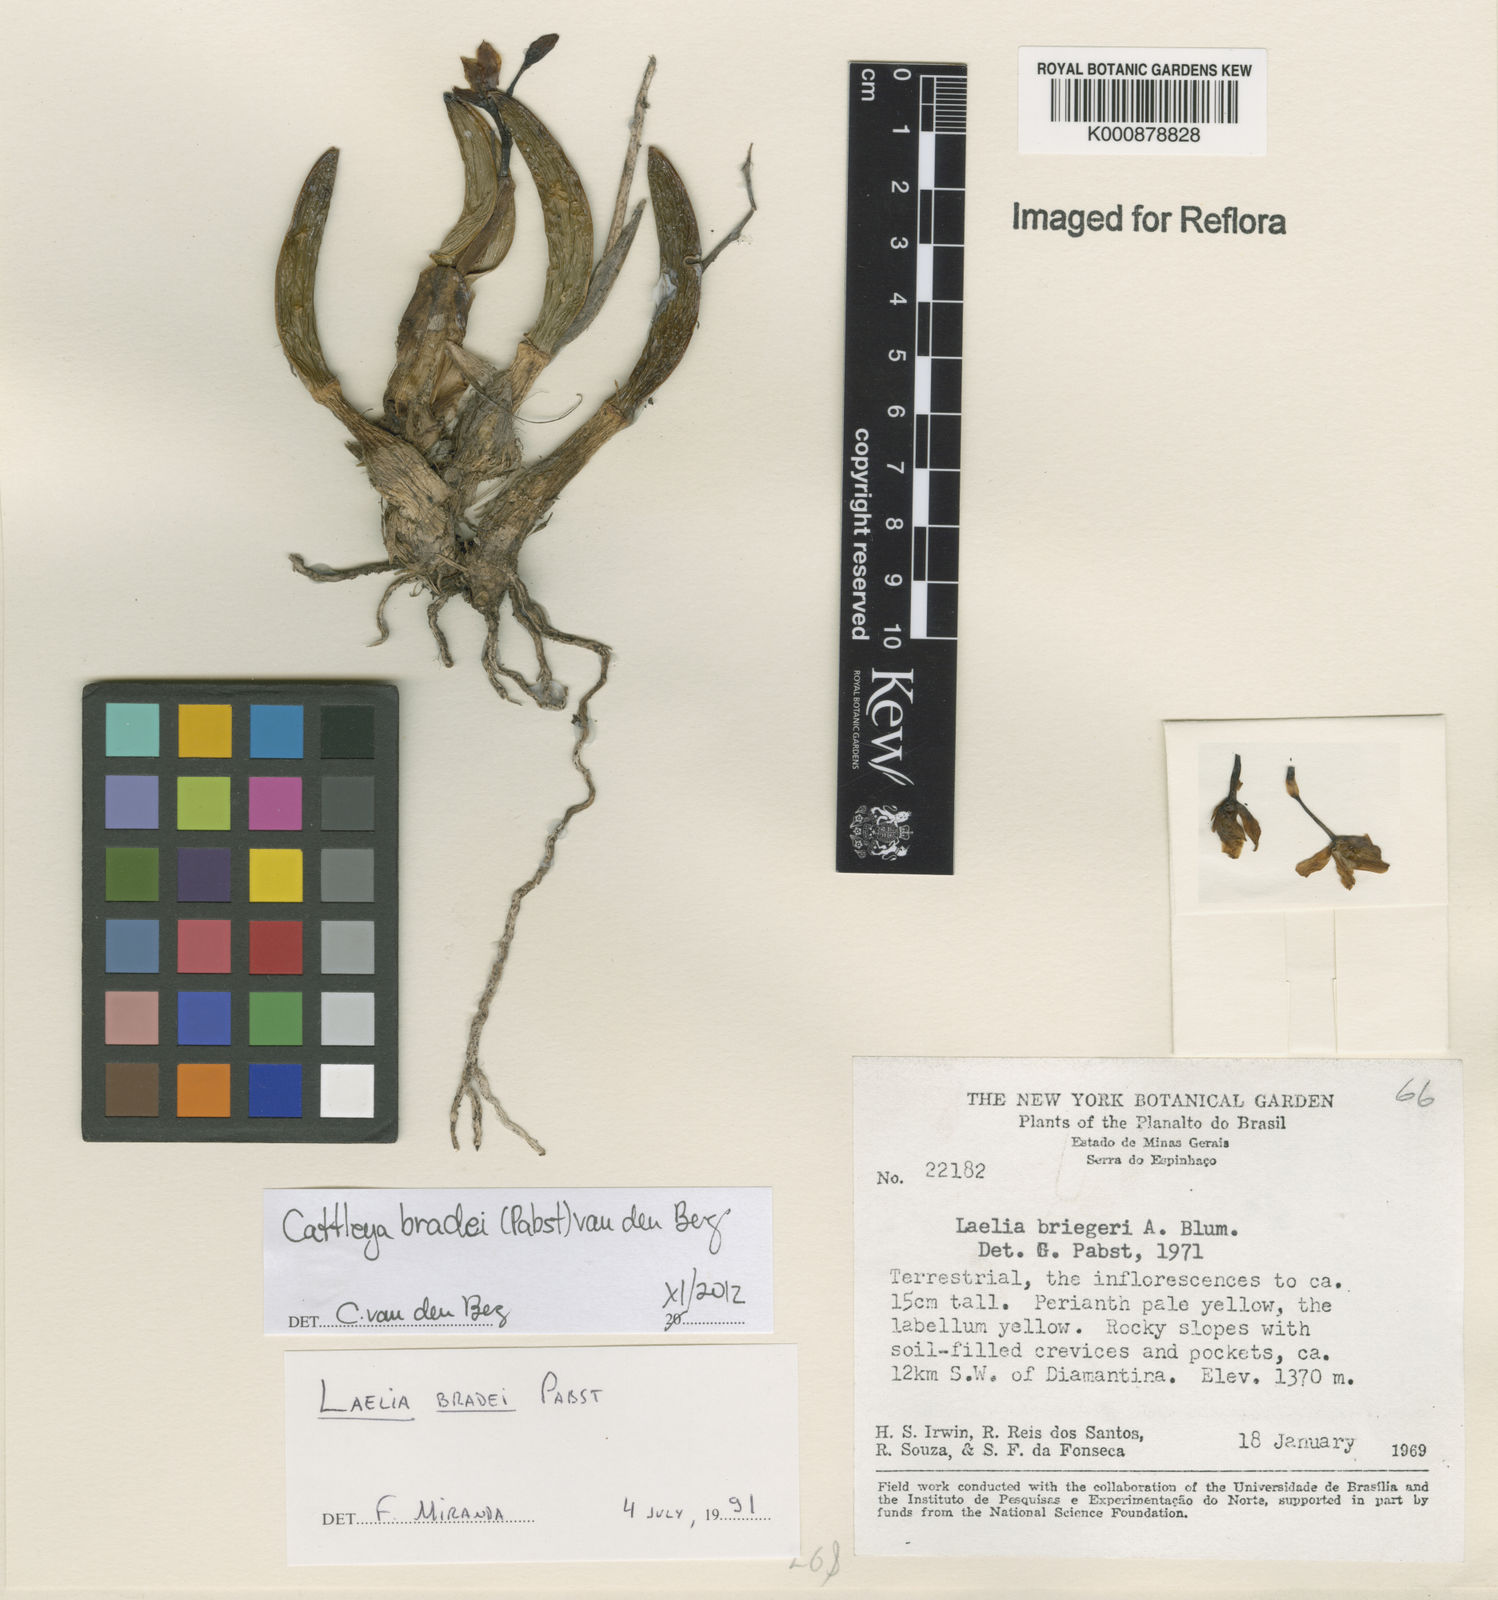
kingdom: Plantae
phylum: Tracheophyta
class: Liliopsida
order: Asparagales
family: Orchidaceae
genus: Cattleya
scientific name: Cattleya bradei
